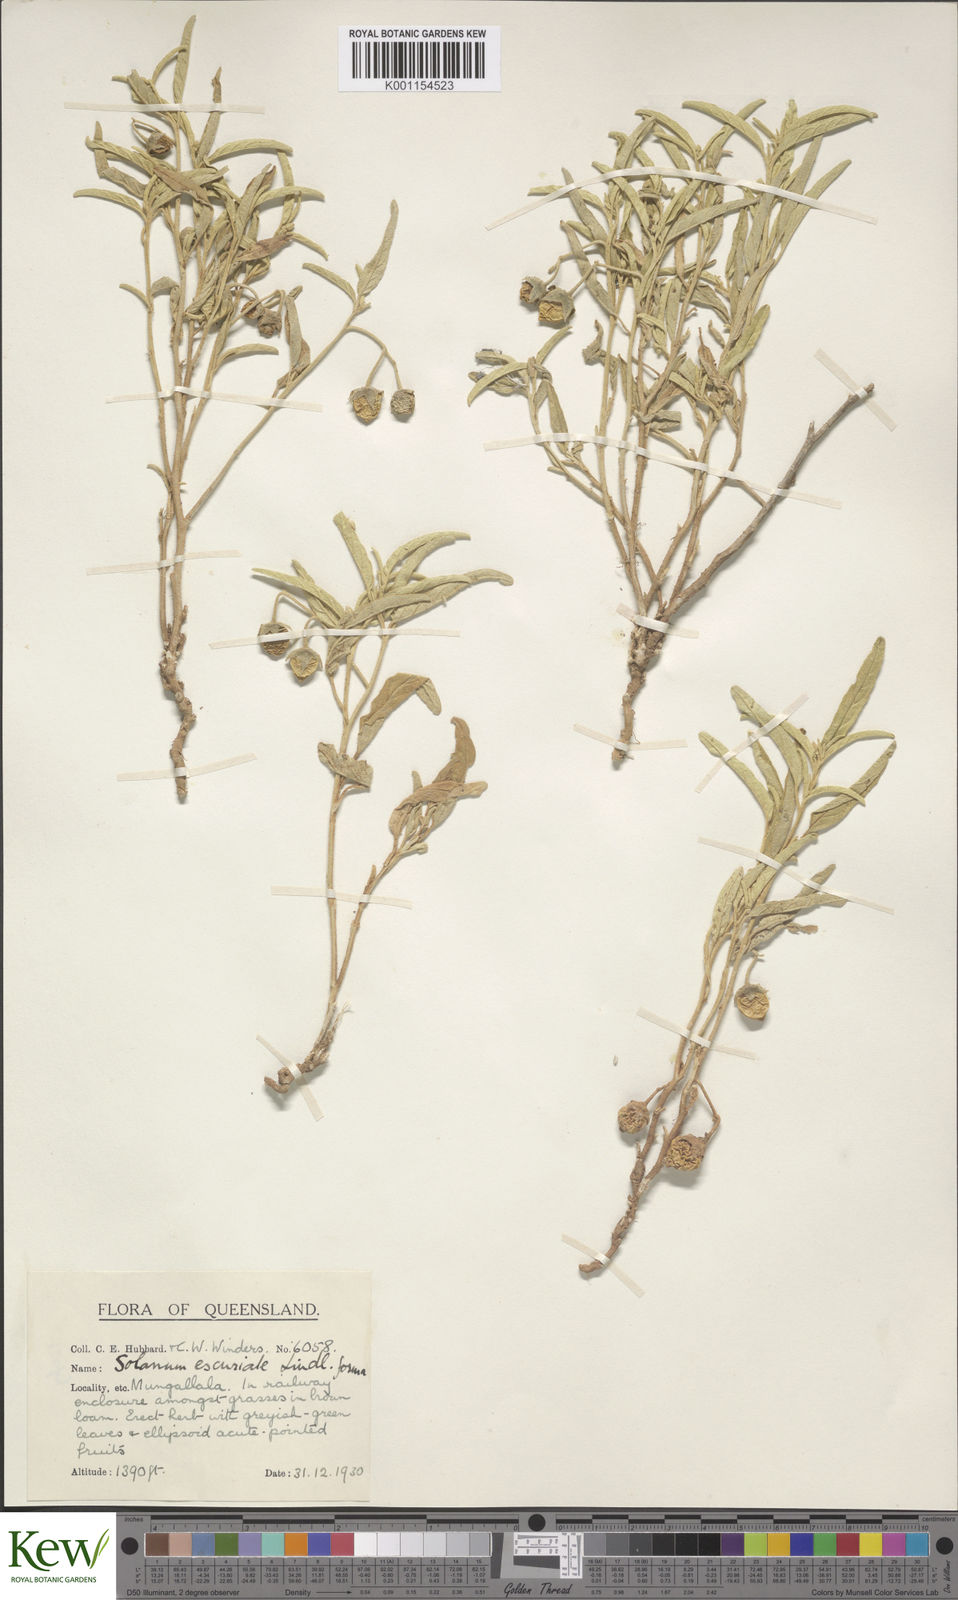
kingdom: Plantae
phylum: Tracheophyta
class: Magnoliopsida
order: Solanales
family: Solanaceae
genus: Solanum
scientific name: Solanum esuriale
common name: Wild tomato
